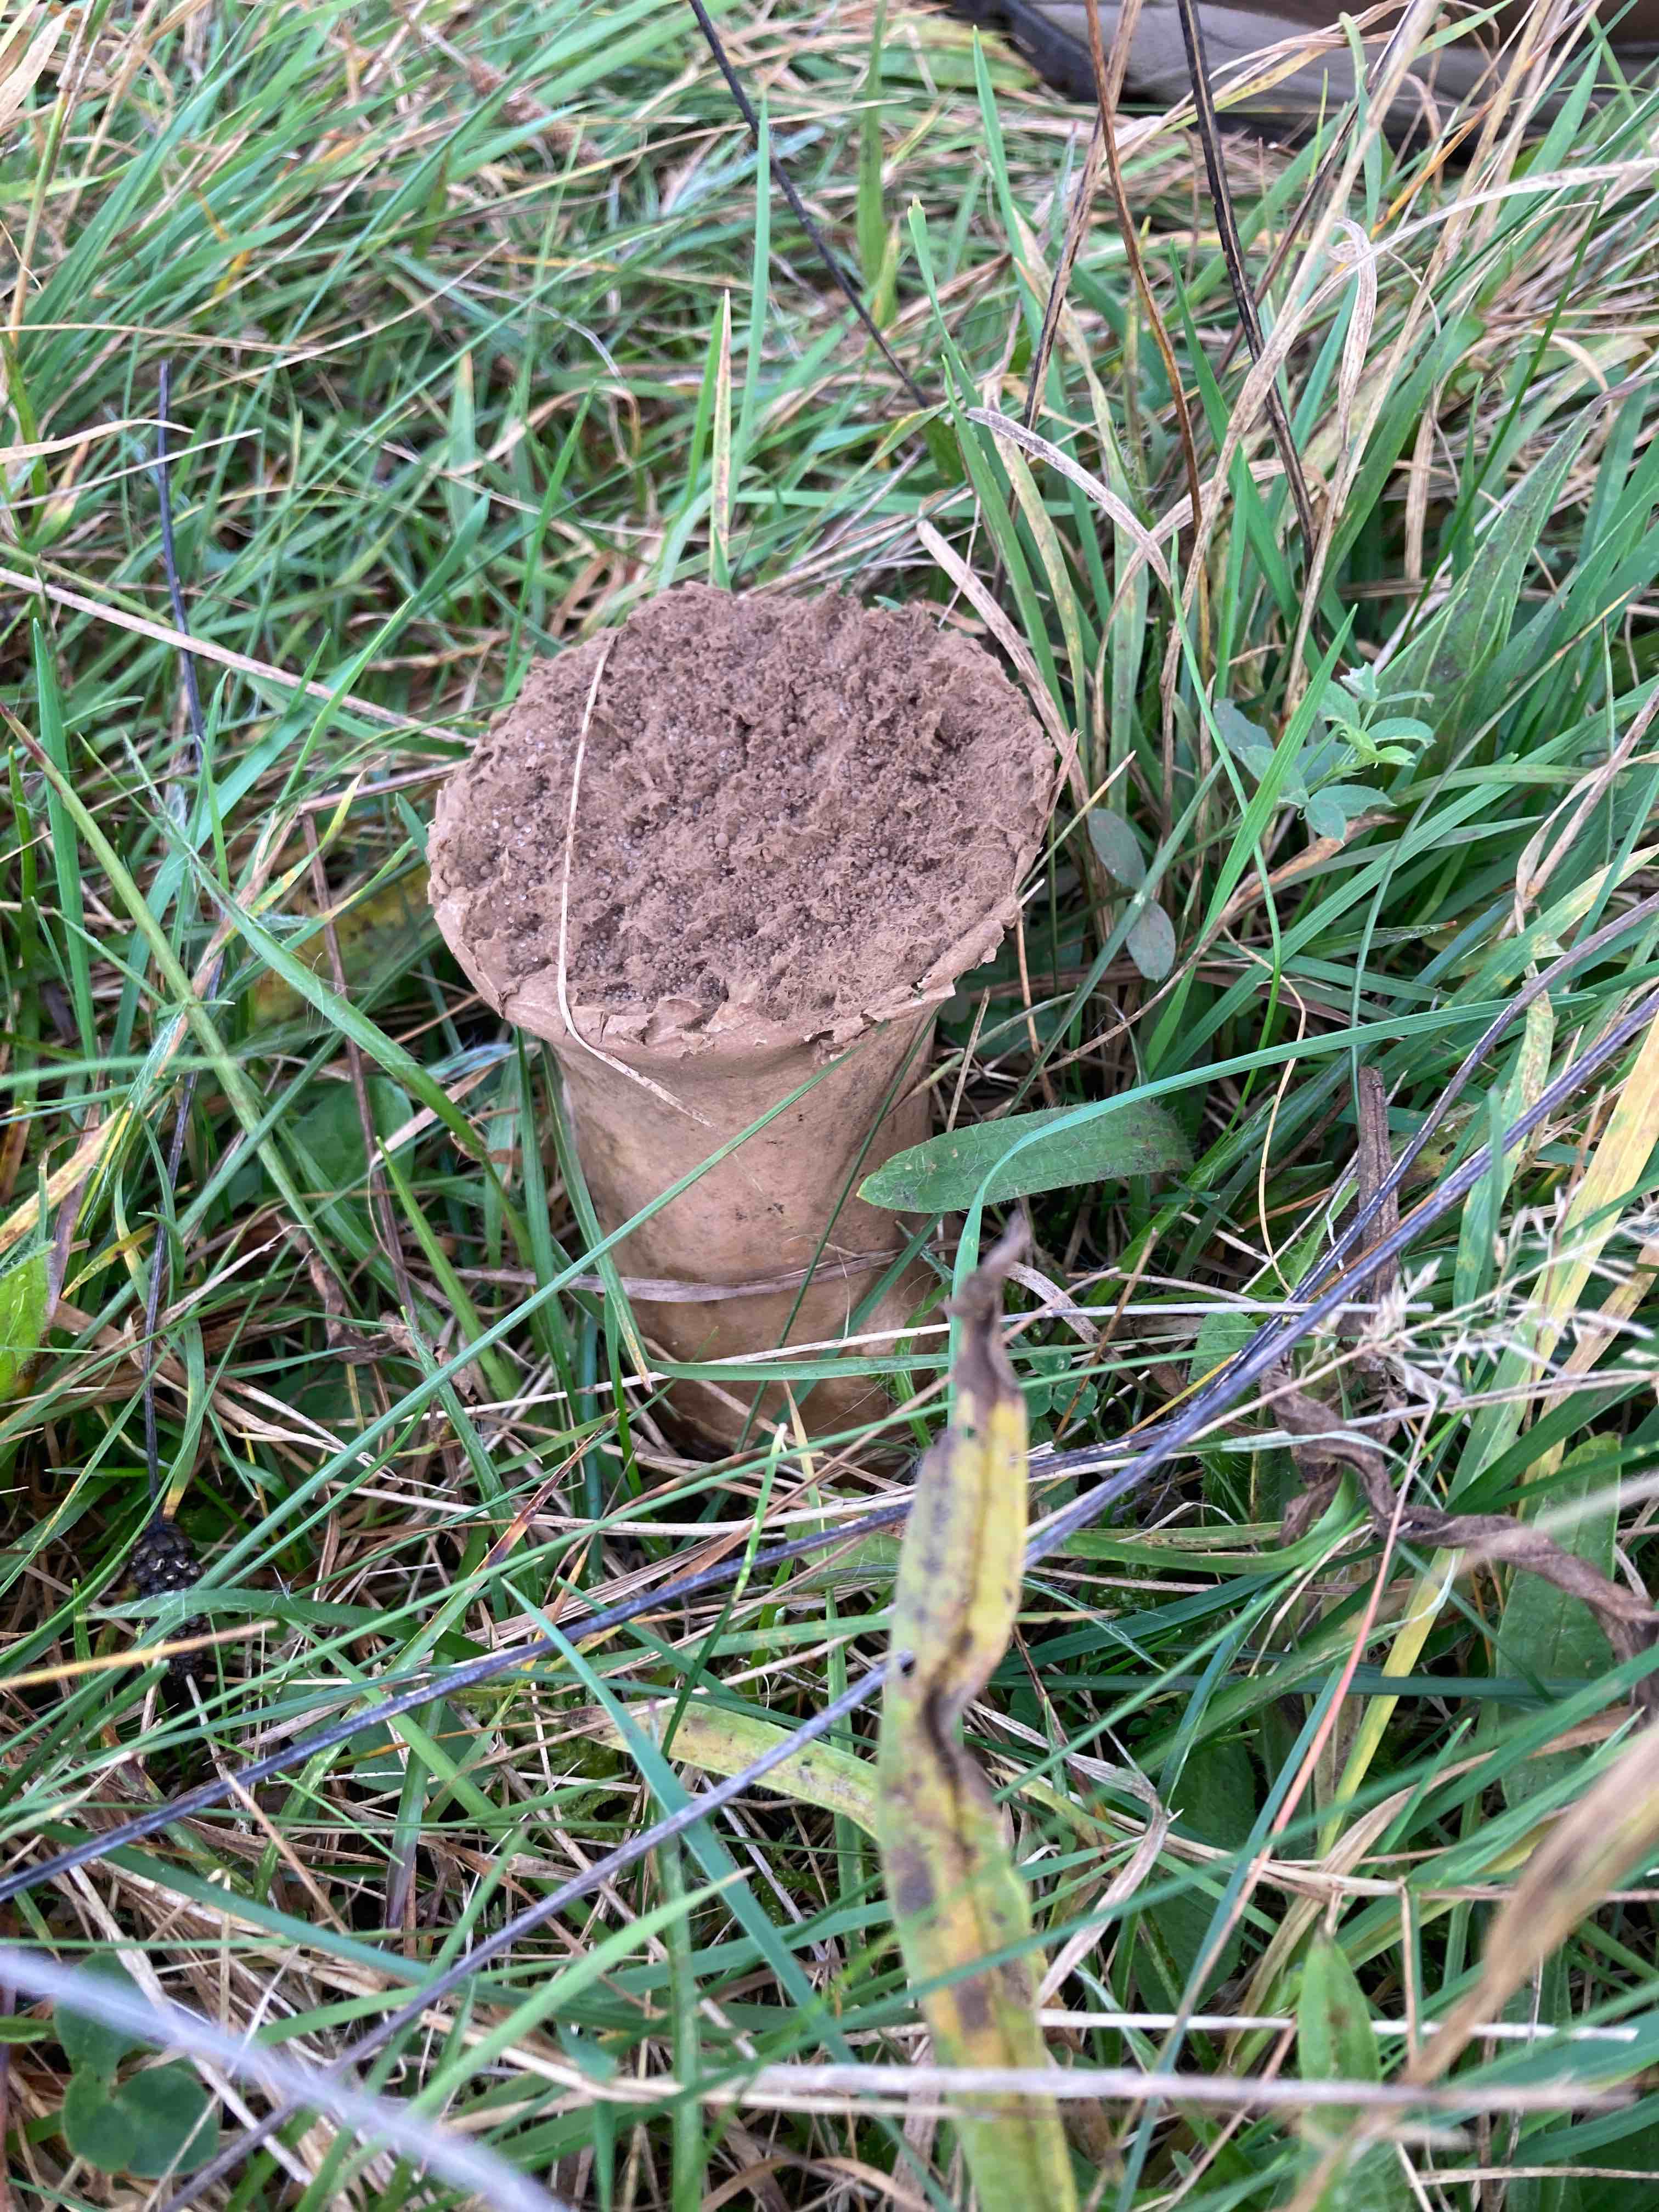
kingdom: Fungi
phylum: Basidiomycota
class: Agaricomycetes
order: Agaricales
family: Lycoperdaceae
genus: Lycoperdon
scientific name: Lycoperdon excipuliforme
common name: højstokket støvbold
